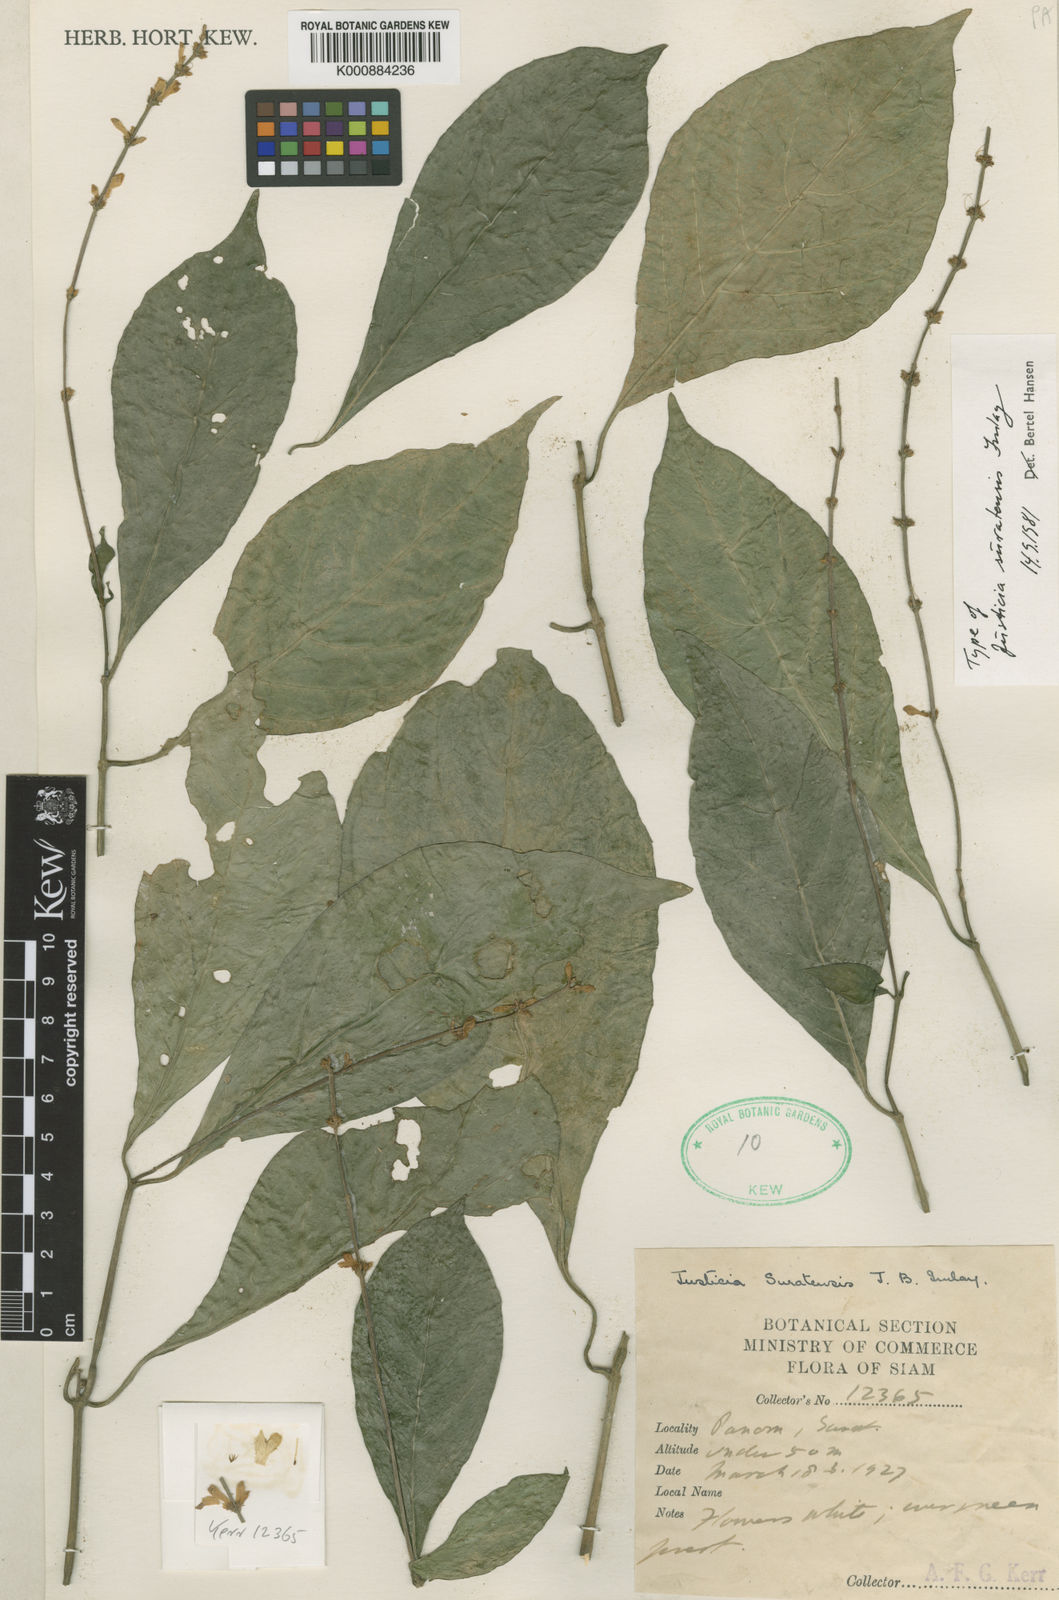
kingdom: Plantae
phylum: Tracheophyta
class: Magnoliopsida
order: Lamiales
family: Acanthaceae
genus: Justicia
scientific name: Justicia suratensis
